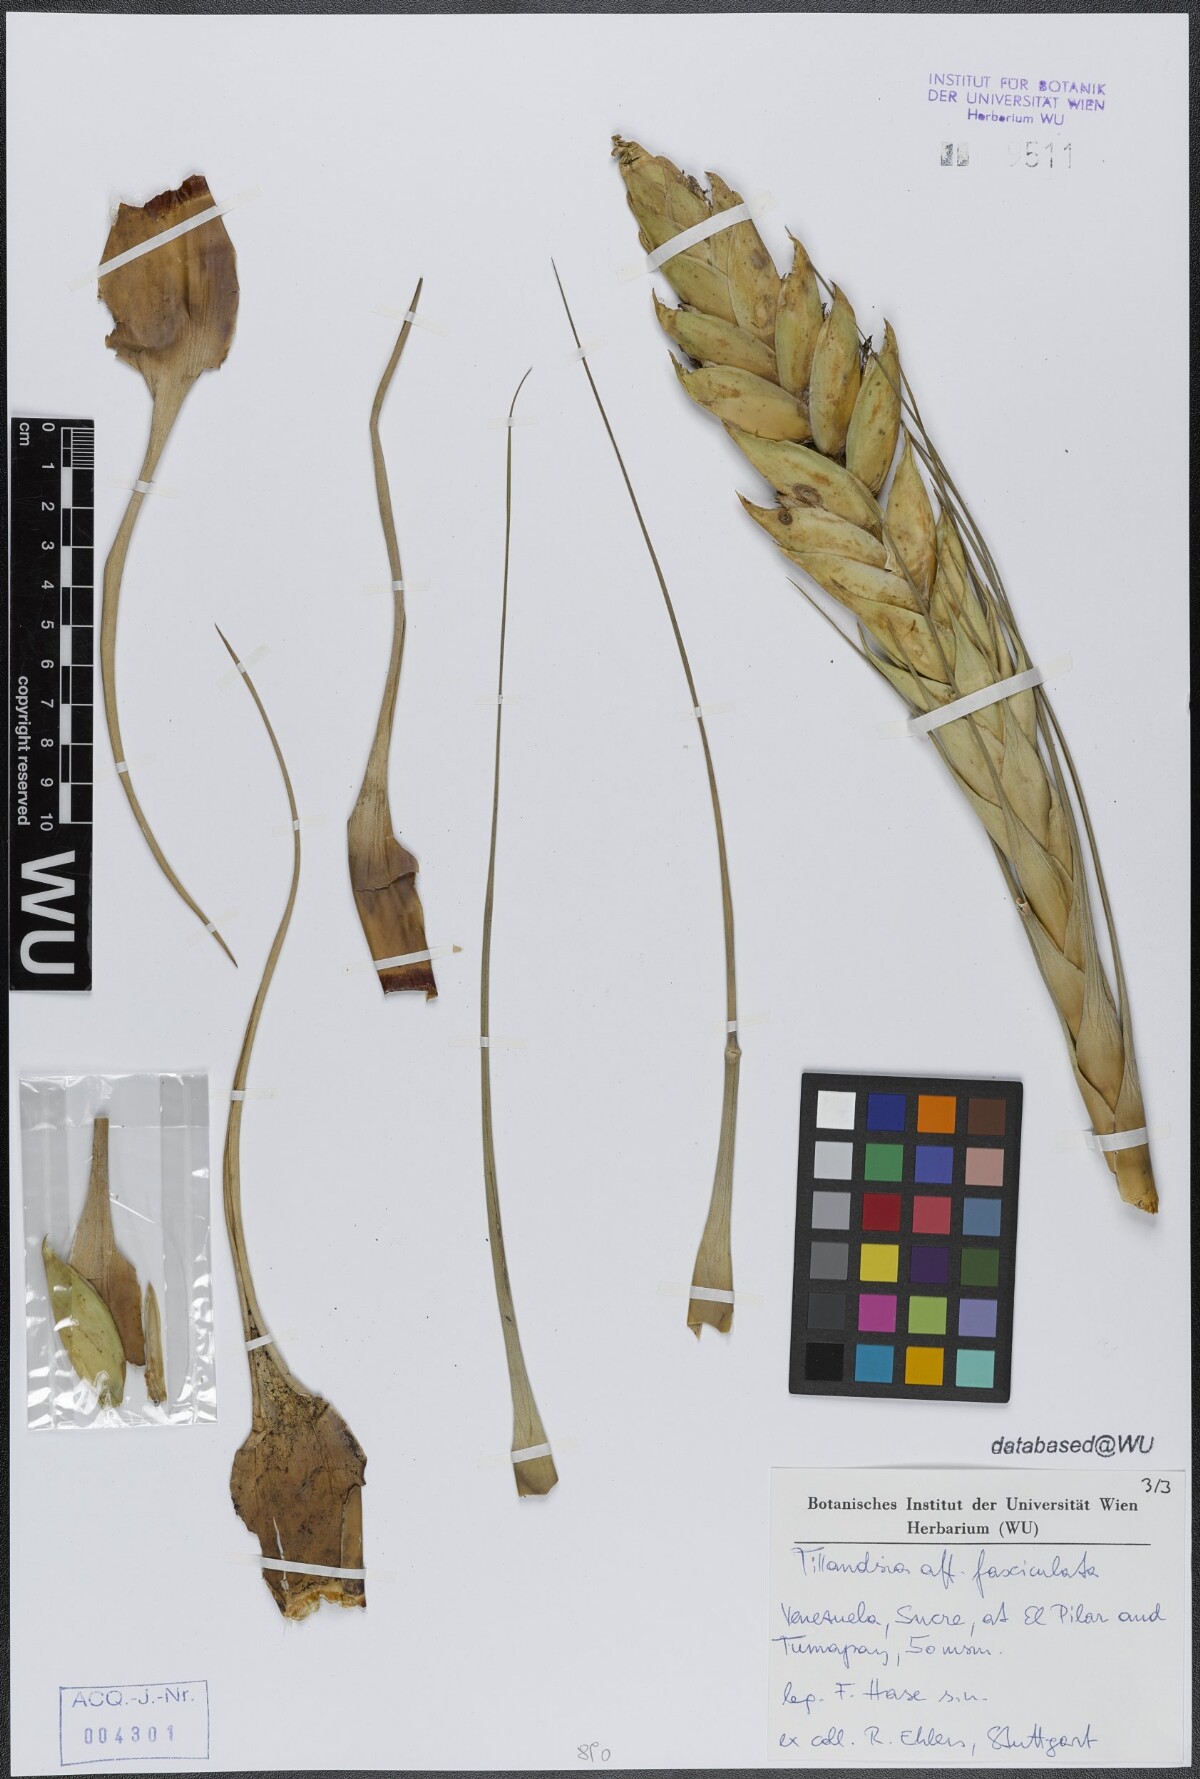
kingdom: Plantae
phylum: Tracheophyta
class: Liliopsida
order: Poales
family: Bromeliaceae
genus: Tillandsia
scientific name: Tillandsia fasciculata
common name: Giant airplant
